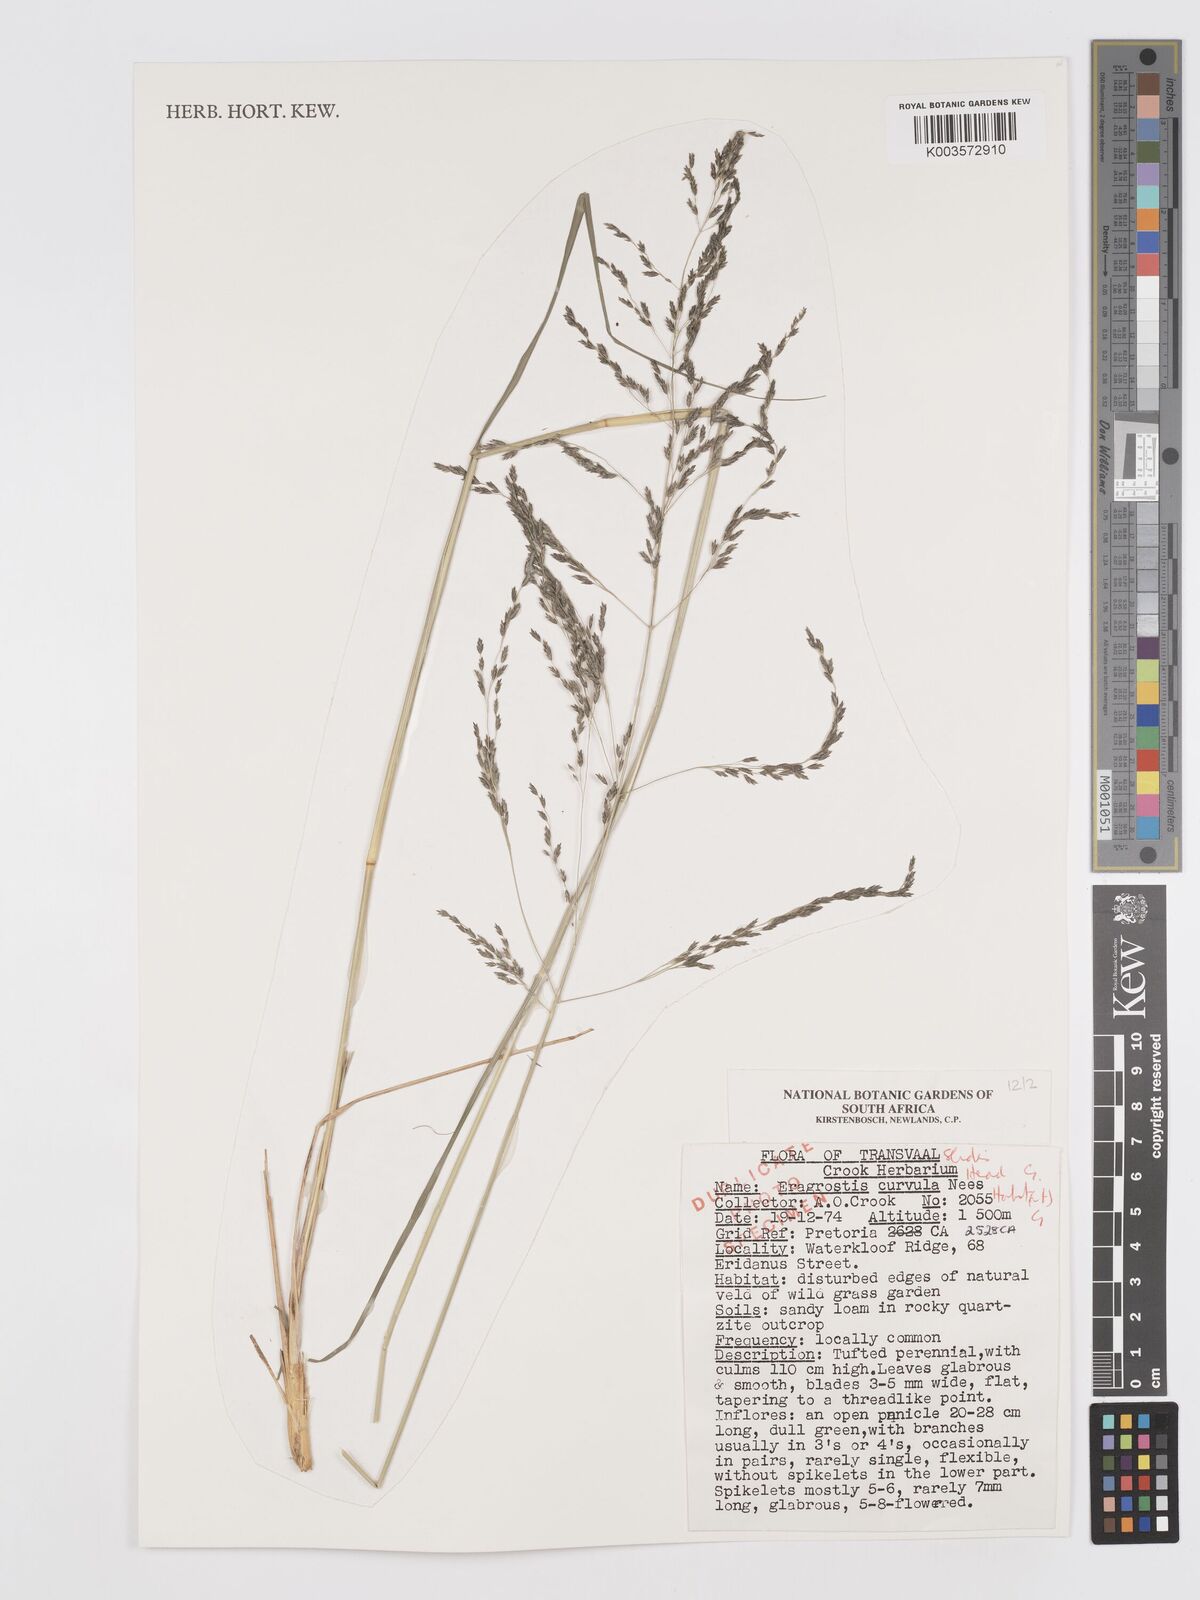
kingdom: Plantae
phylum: Tracheophyta
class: Liliopsida
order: Poales
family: Poaceae
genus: Eragrostis
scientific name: Eragrostis curvula
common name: African love-grass
